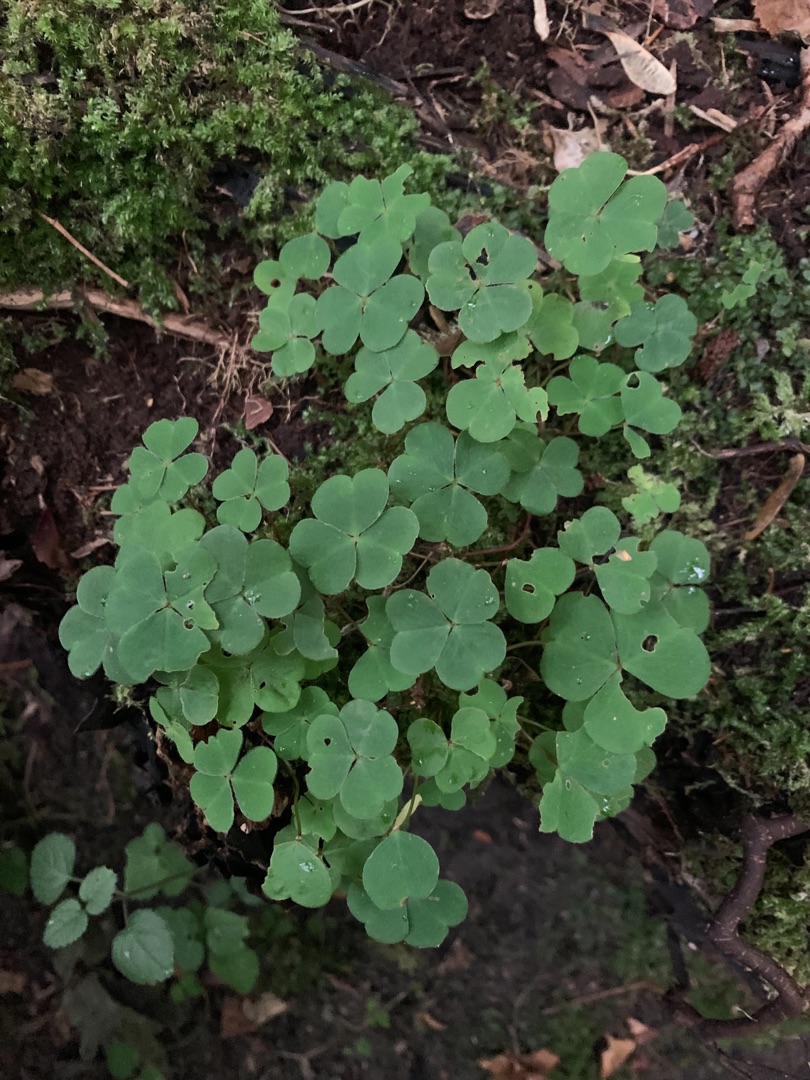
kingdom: Plantae
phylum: Tracheophyta
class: Magnoliopsida
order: Oxalidales
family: Oxalidaceae
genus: Oxalis
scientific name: Oxalis acetosella
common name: Skovsyre
